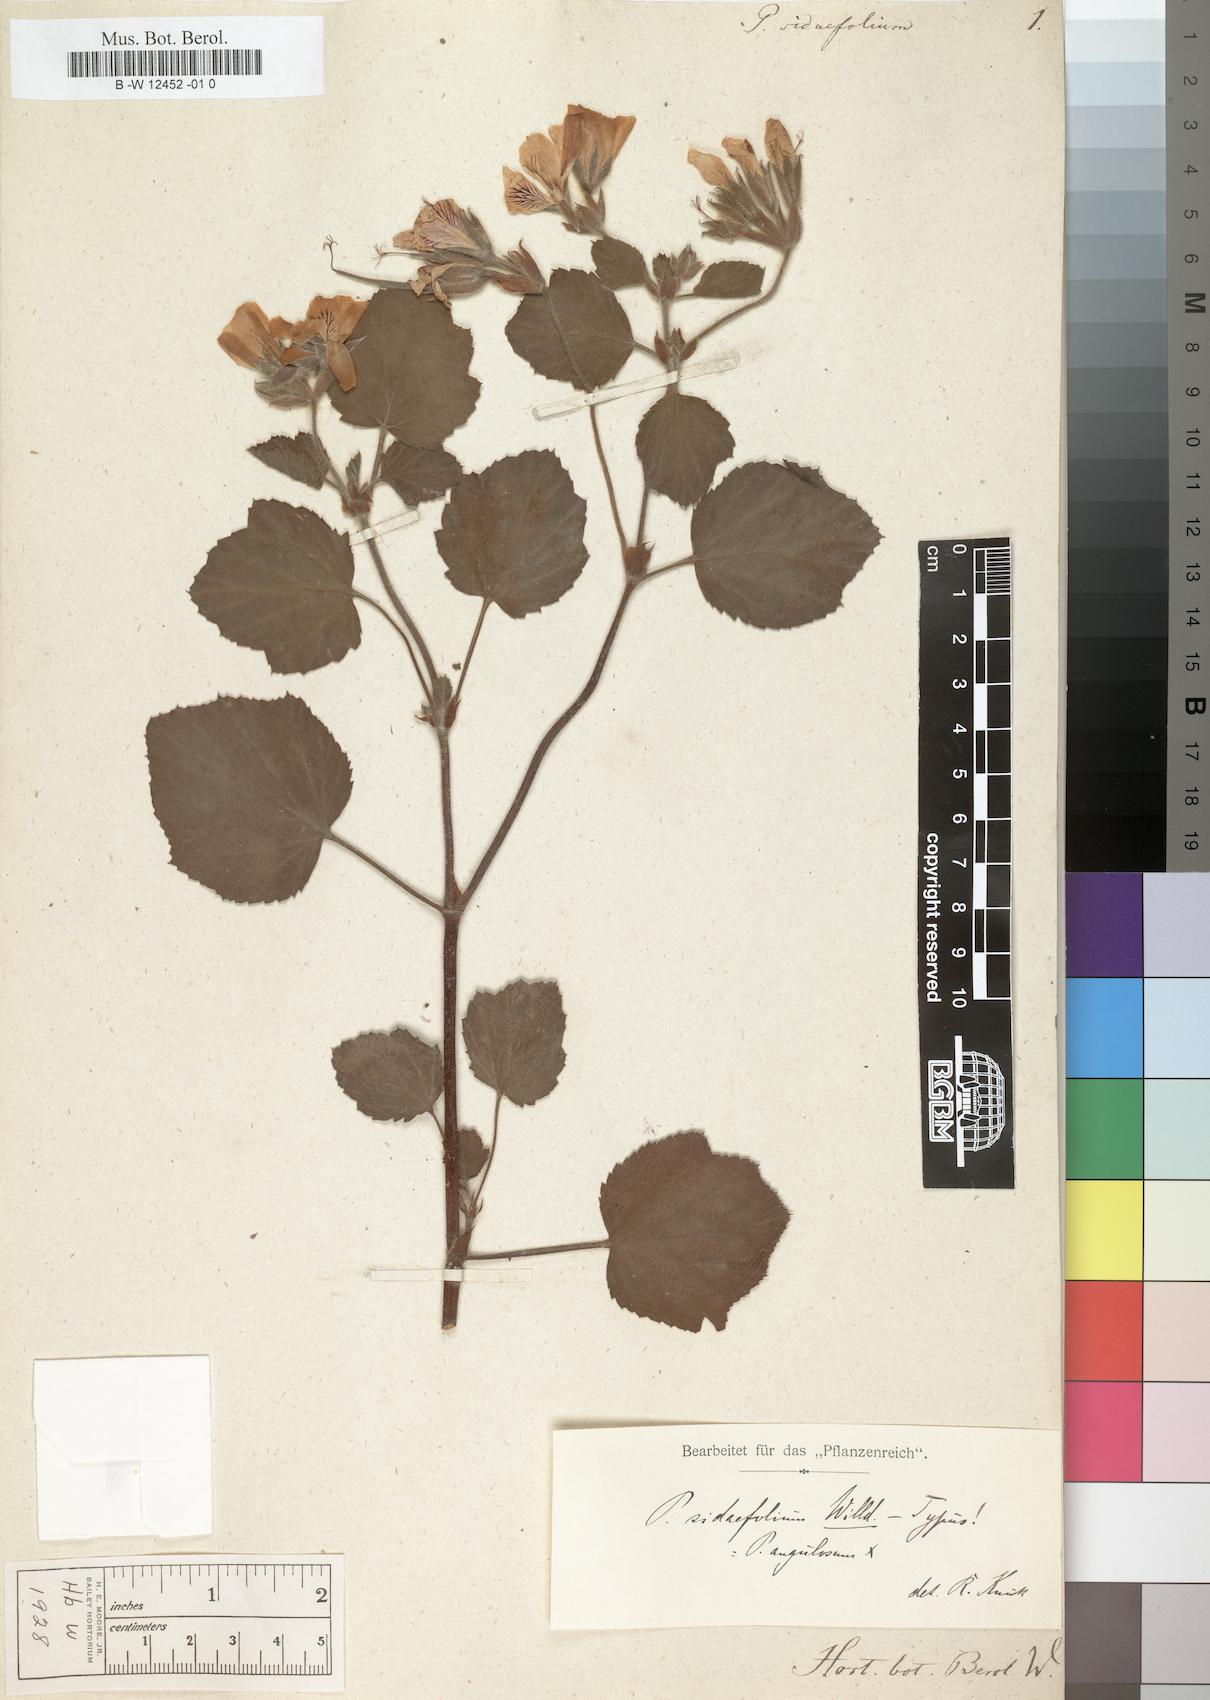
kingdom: Plantae
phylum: Tracheophyta
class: Magnoliopsida
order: Geraniales
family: Geraniaceae
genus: Pelargonium
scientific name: Pelargonium sidoides
